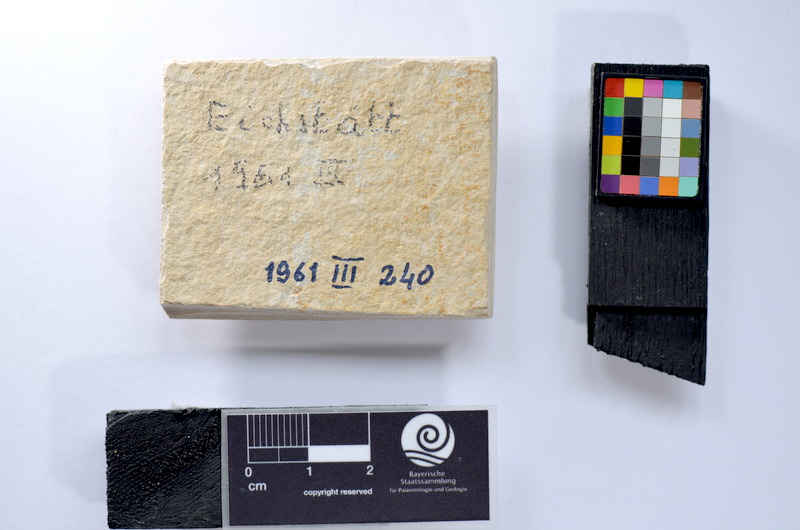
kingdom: Animalia
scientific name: Animalia
